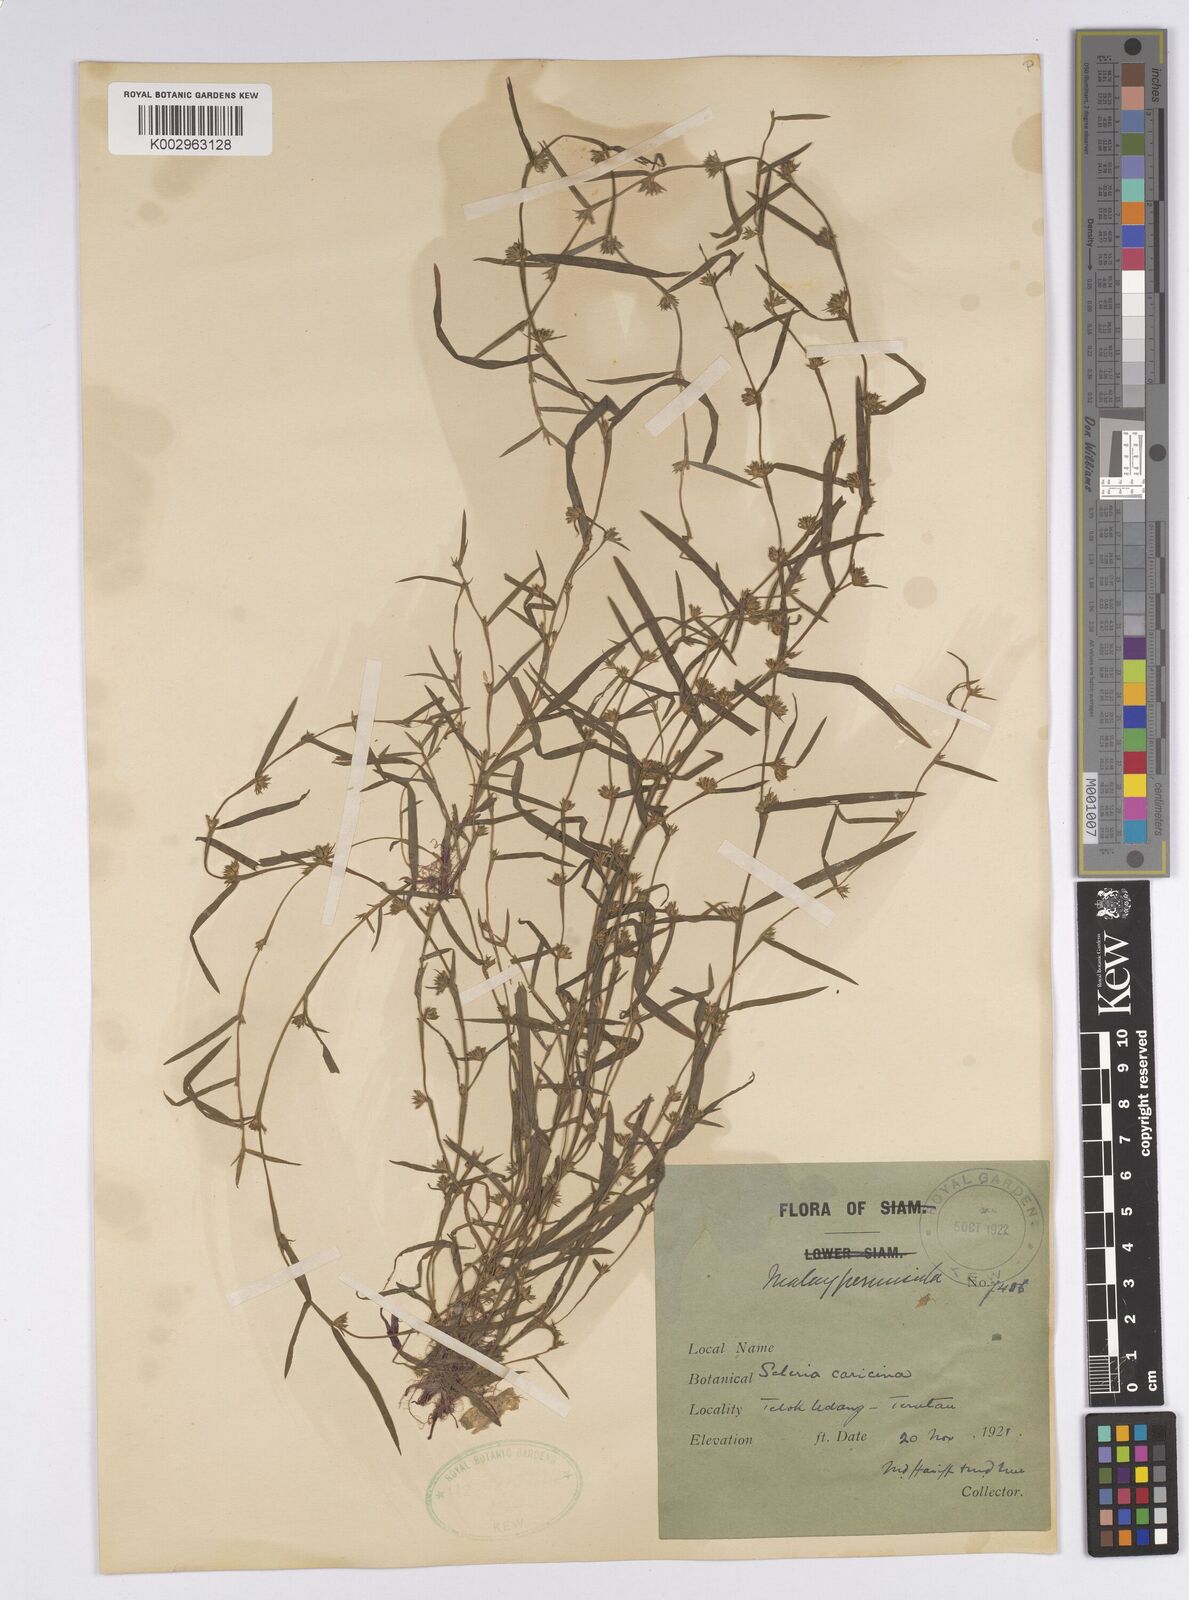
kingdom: Plantae
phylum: Tracheophyta
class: Liliopsida
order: Poales
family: Cyperaceae
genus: Diplacrum
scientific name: Diplacrum caricinum
